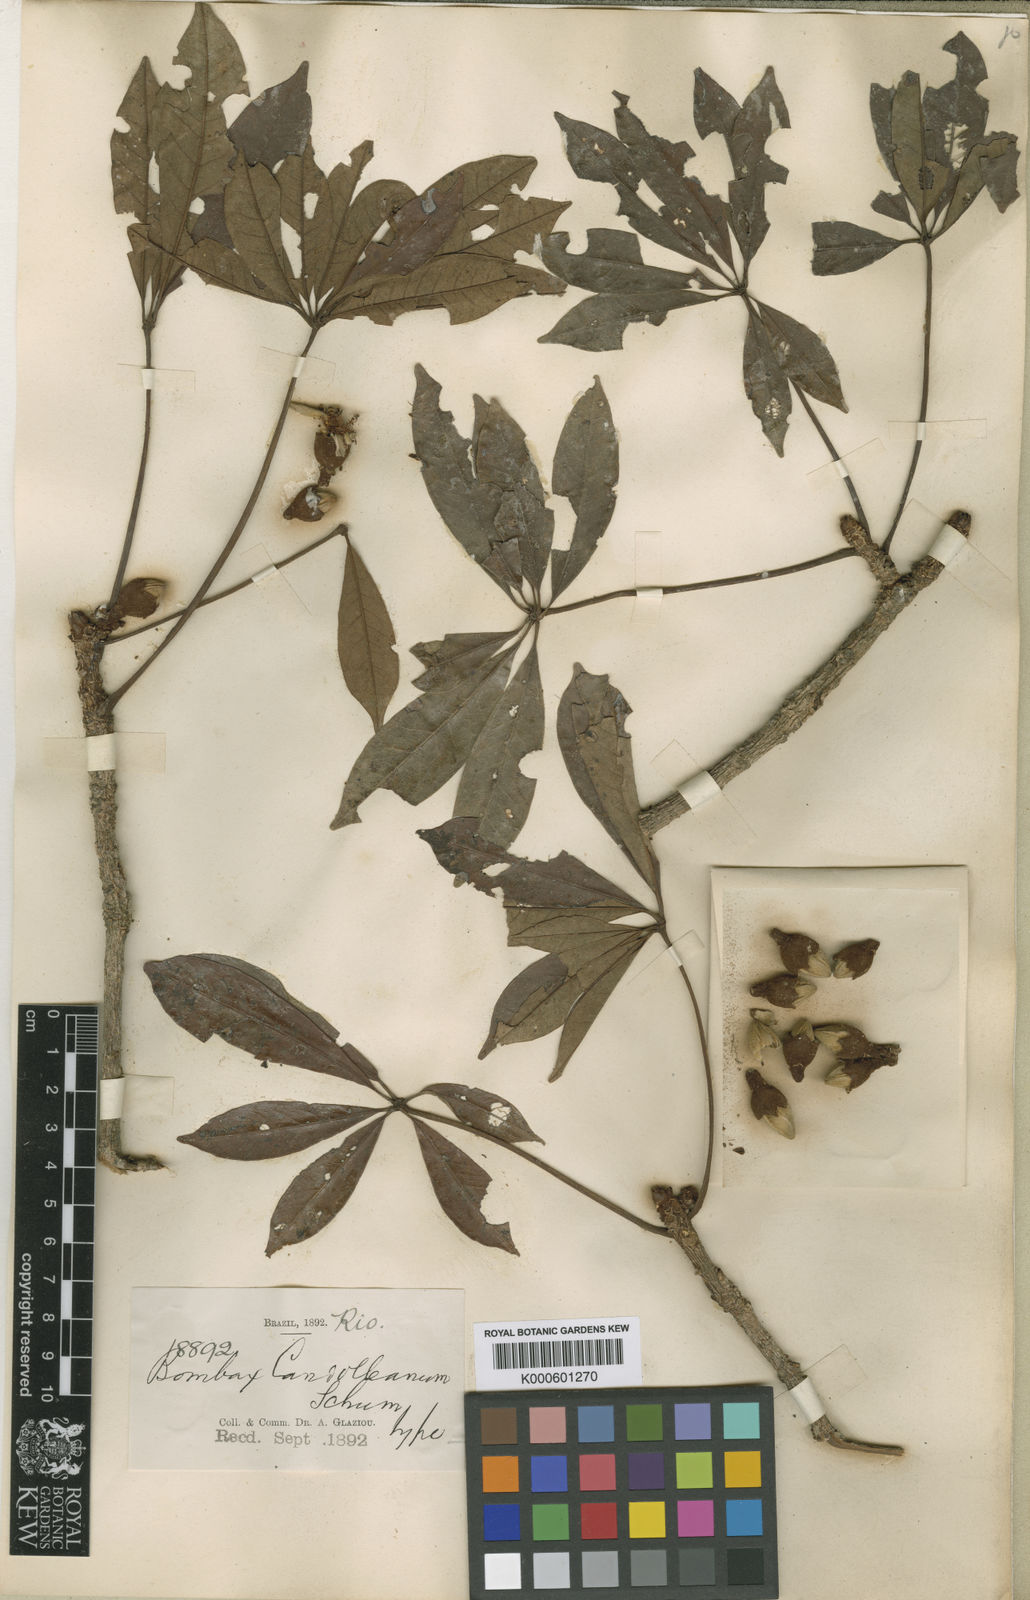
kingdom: Plantae
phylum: Tracheophyta
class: Magnoliopsida
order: Malvales
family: Malvaceae
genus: Eriotheca
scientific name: Eriotheca candolleana
